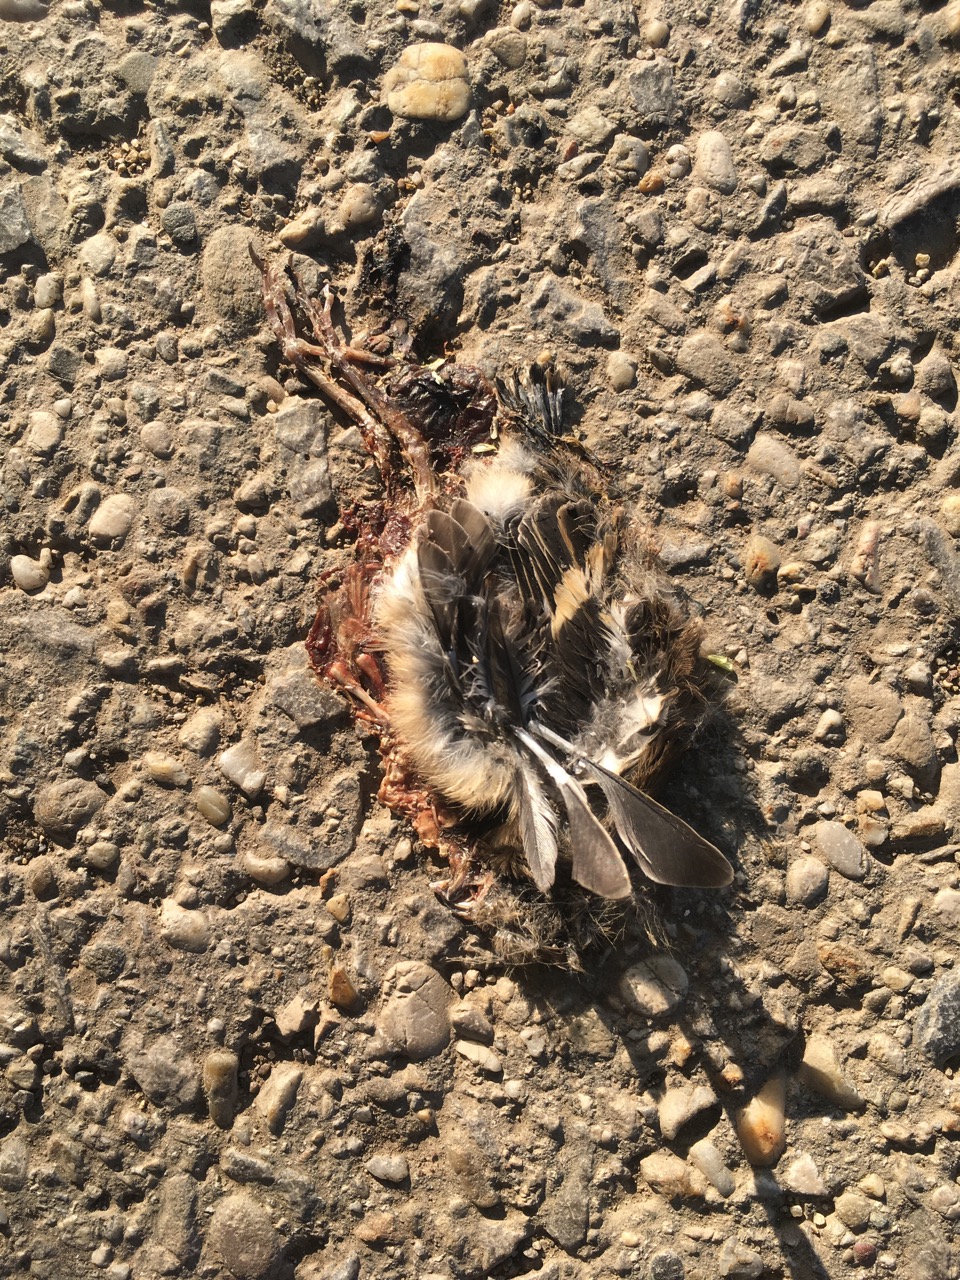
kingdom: Animalia
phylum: Chordata
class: Aves
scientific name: Aves
